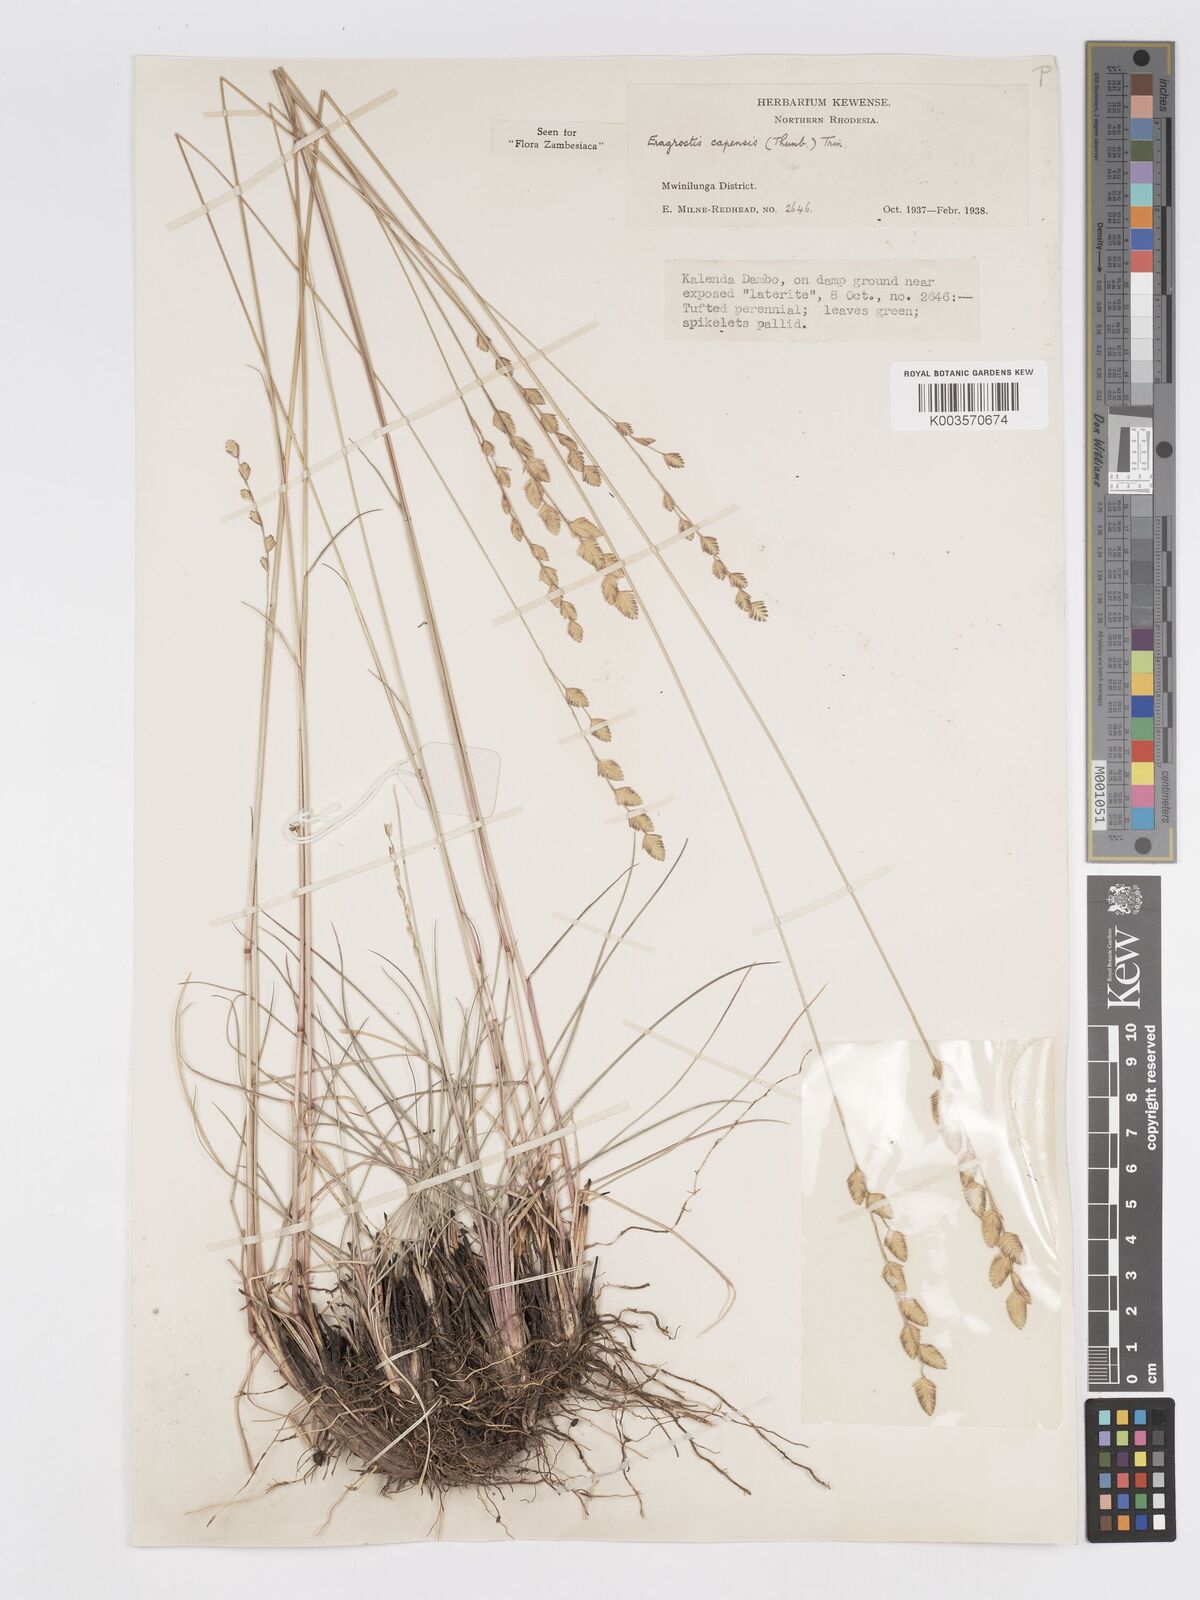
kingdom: Plantae
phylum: Tracheophyta
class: Liliopsida
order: Poales
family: Poaceae
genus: Eragrostis
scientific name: Eragrostis capensis
